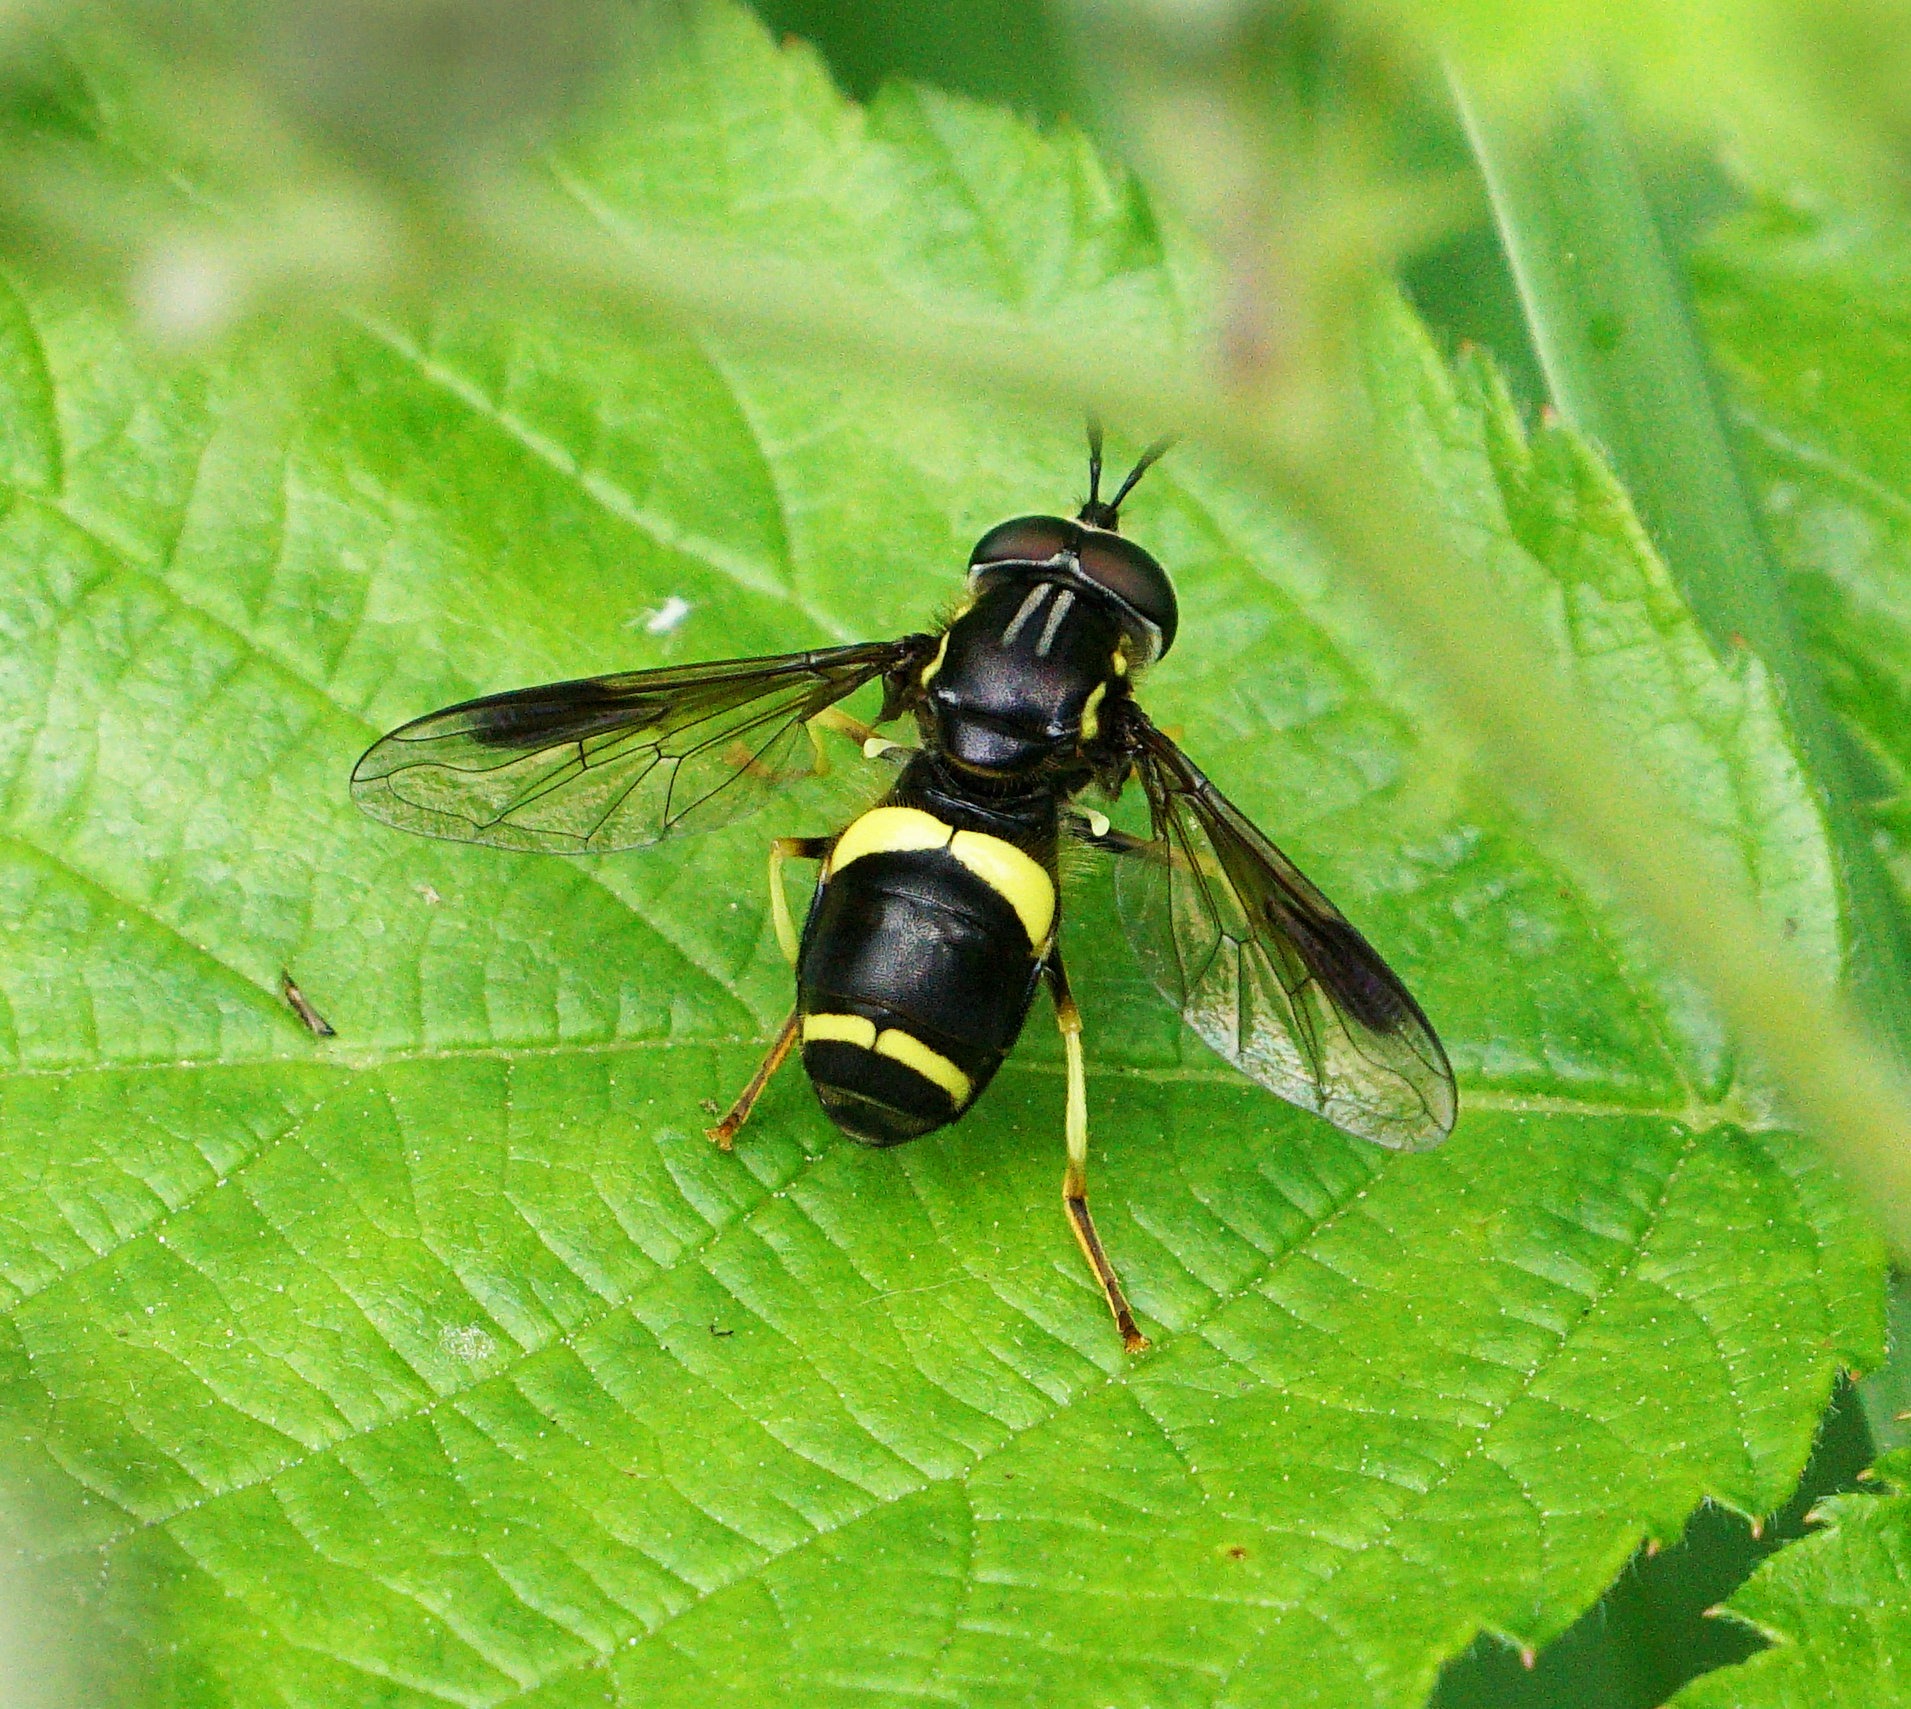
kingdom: Animalia
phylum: Arthropoda
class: Insecta
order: Diptera
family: Syrphidae
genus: Chrysotoxum
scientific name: Chrysotoxum bicincta
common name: Tobåndet hvepsesvirreflue
